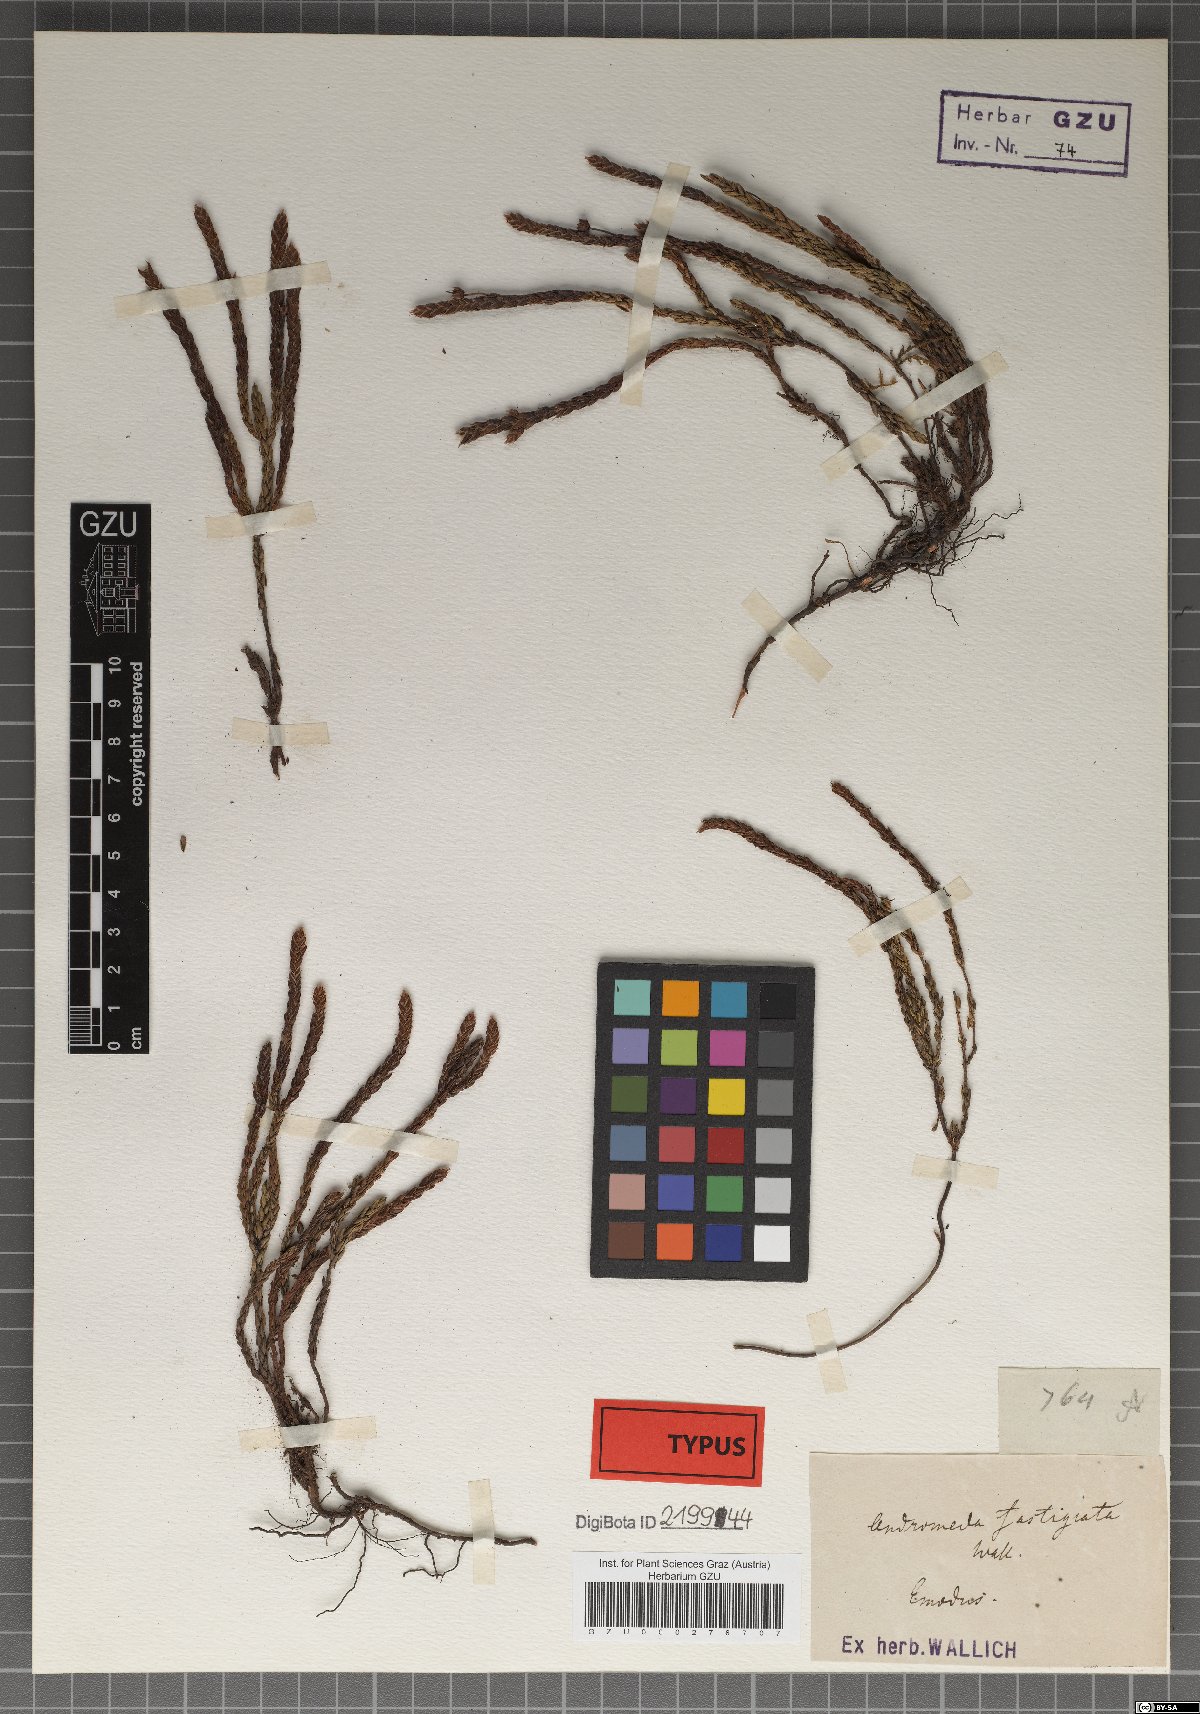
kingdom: Plantae
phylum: Tracheophyta
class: Magnoliopsida
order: Ericales
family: Ericaceae
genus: Cassiope
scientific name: Cassiope fastigiata
